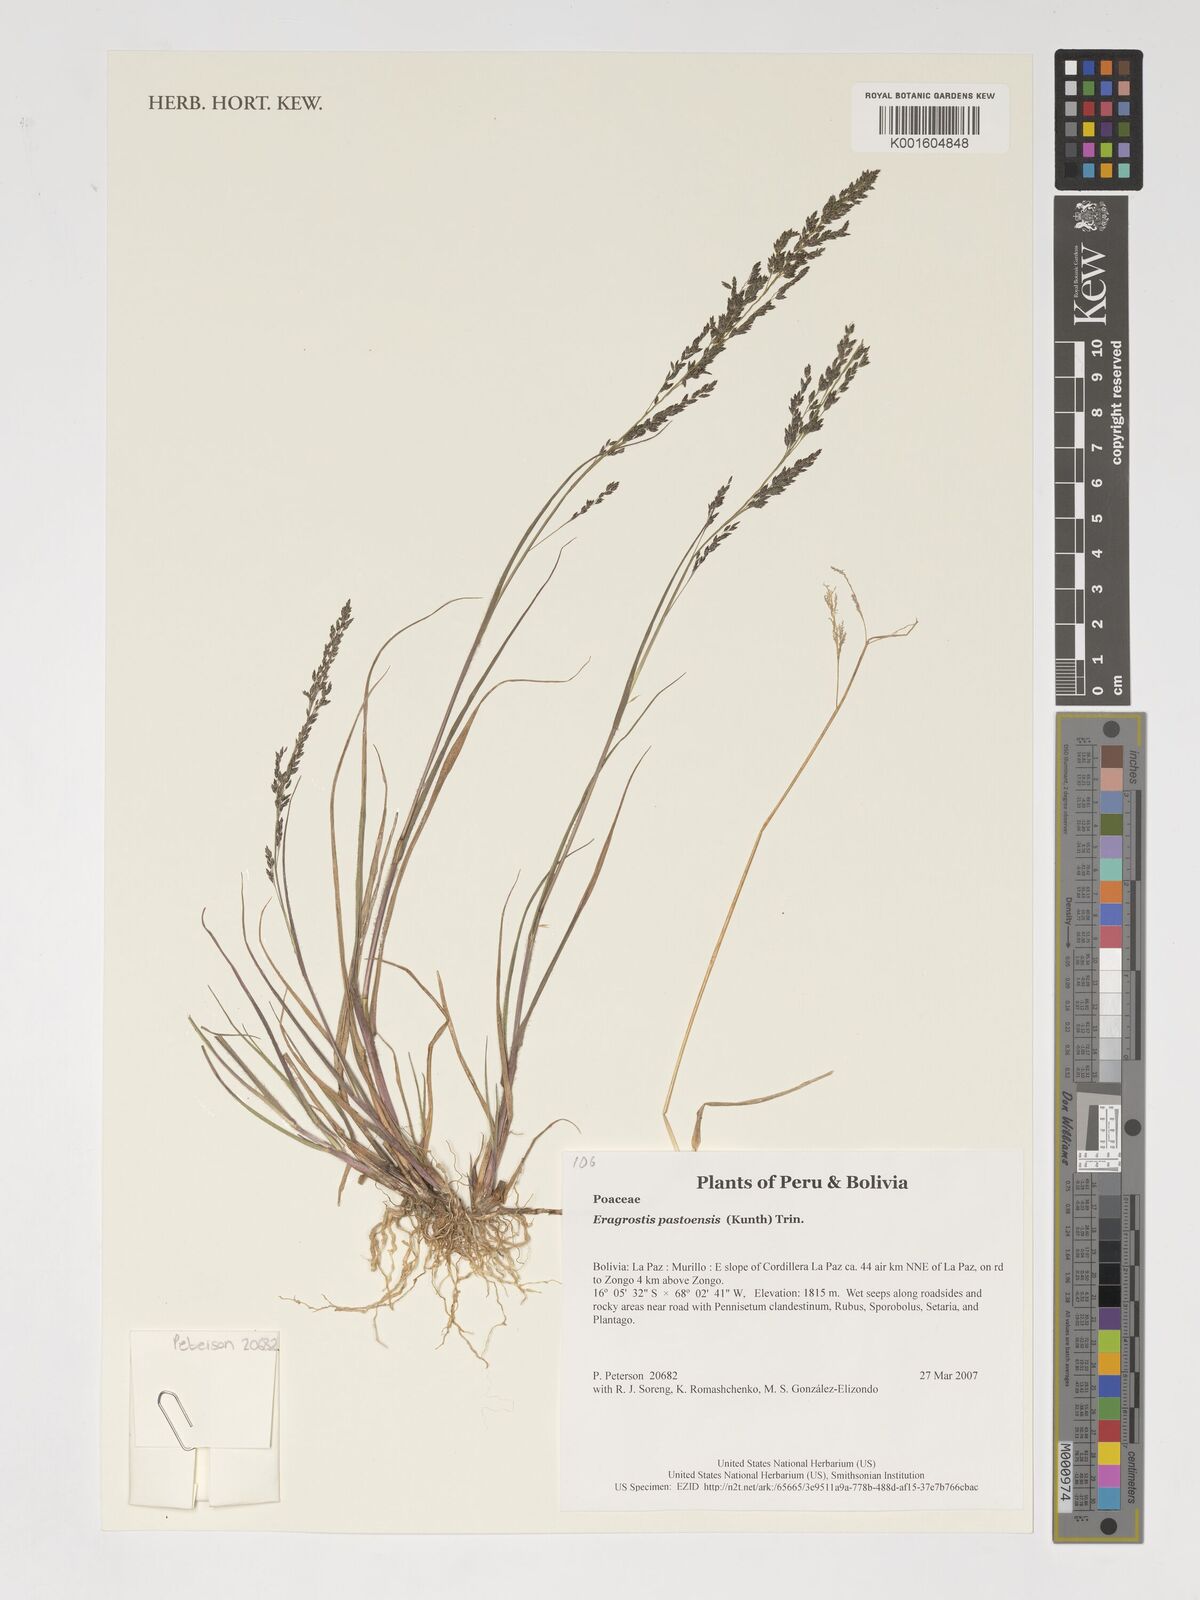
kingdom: Plantae
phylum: Tracheophyta
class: Liliopsida
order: Poales
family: Poaceae
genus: Eragrostis
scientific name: Eragrostis pastoensis
